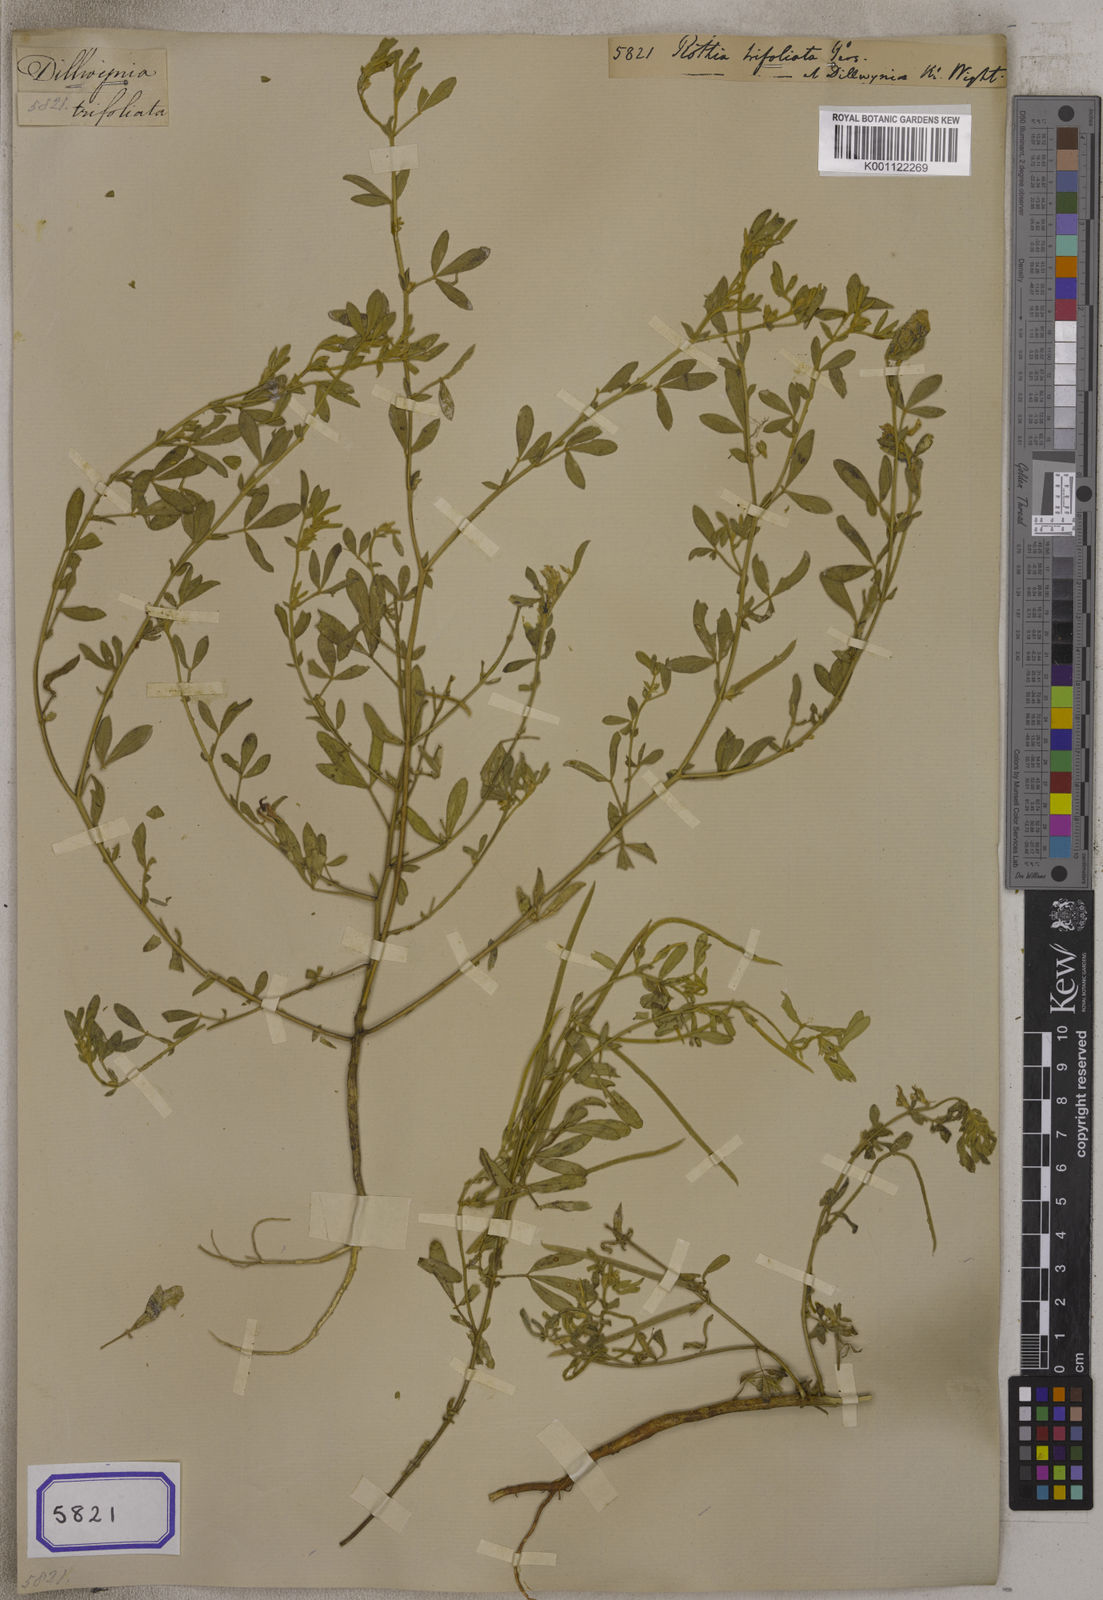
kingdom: Plantae
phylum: Tracheophyta
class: Magnoliopsida
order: Fabales
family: Fabaceae
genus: Rothia
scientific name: Rothia
